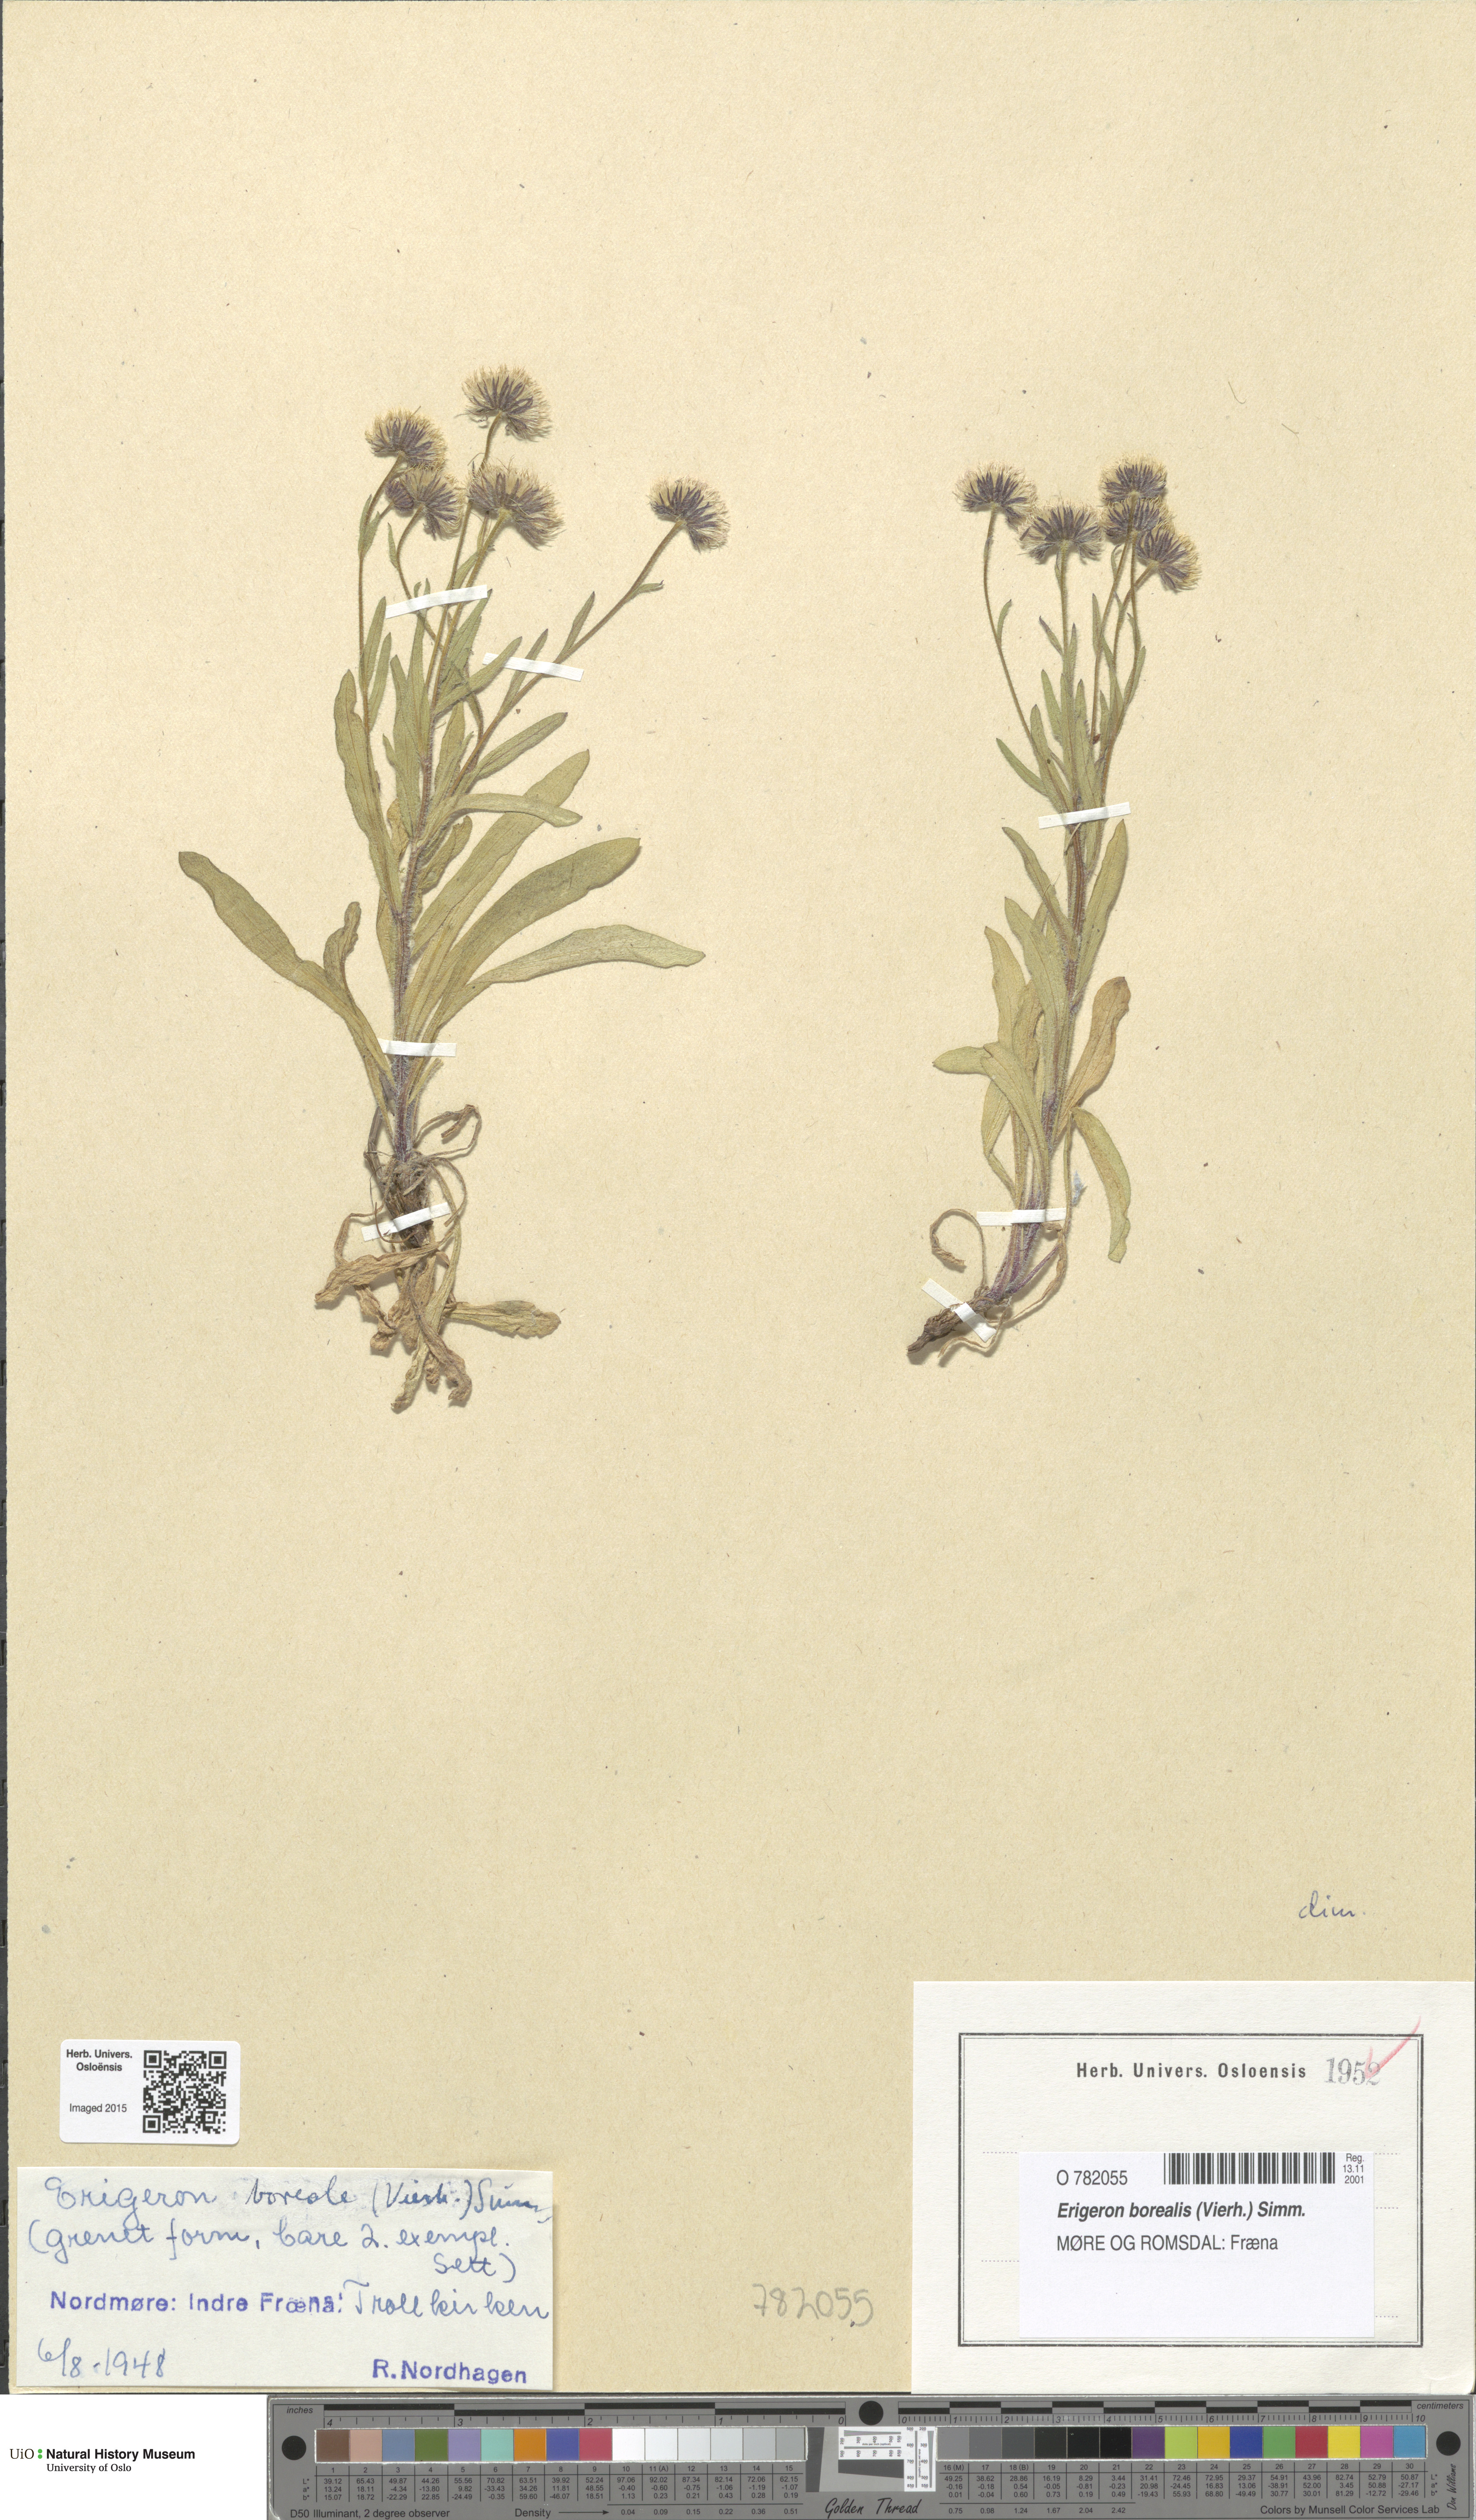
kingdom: Plantae
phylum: Tracheophyta
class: Magnoliopsida
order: Asterales
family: Asteraceae
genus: Erigeron
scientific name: Erigeron borealis
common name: Alpine fleabane
